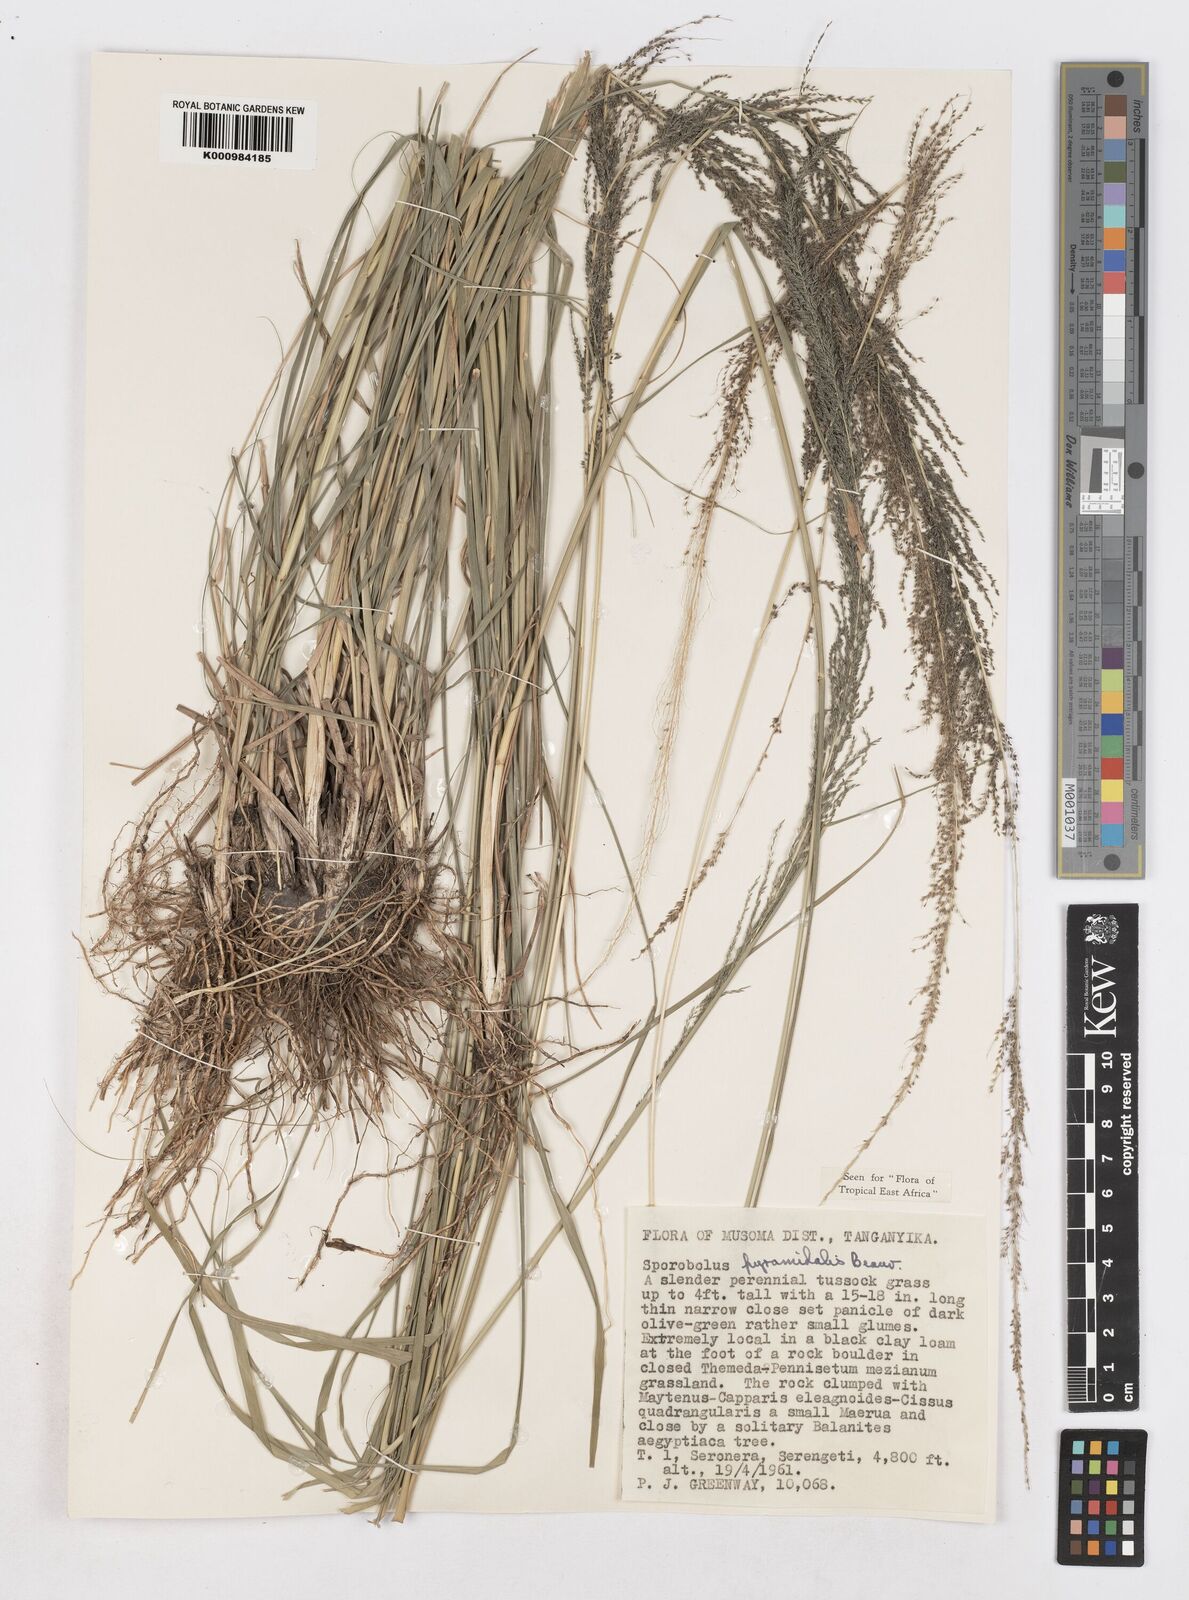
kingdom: Plantae
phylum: Tracheophyta
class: Liliopsida
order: Poales
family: Poaceae
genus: Sporobolus
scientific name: Sporobolus pyramidalis
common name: West indian dropseed
